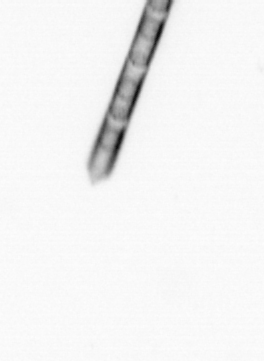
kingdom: Chromista
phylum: Ochrophyta
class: Bacillariophyceae
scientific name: Bacillariophyceae
